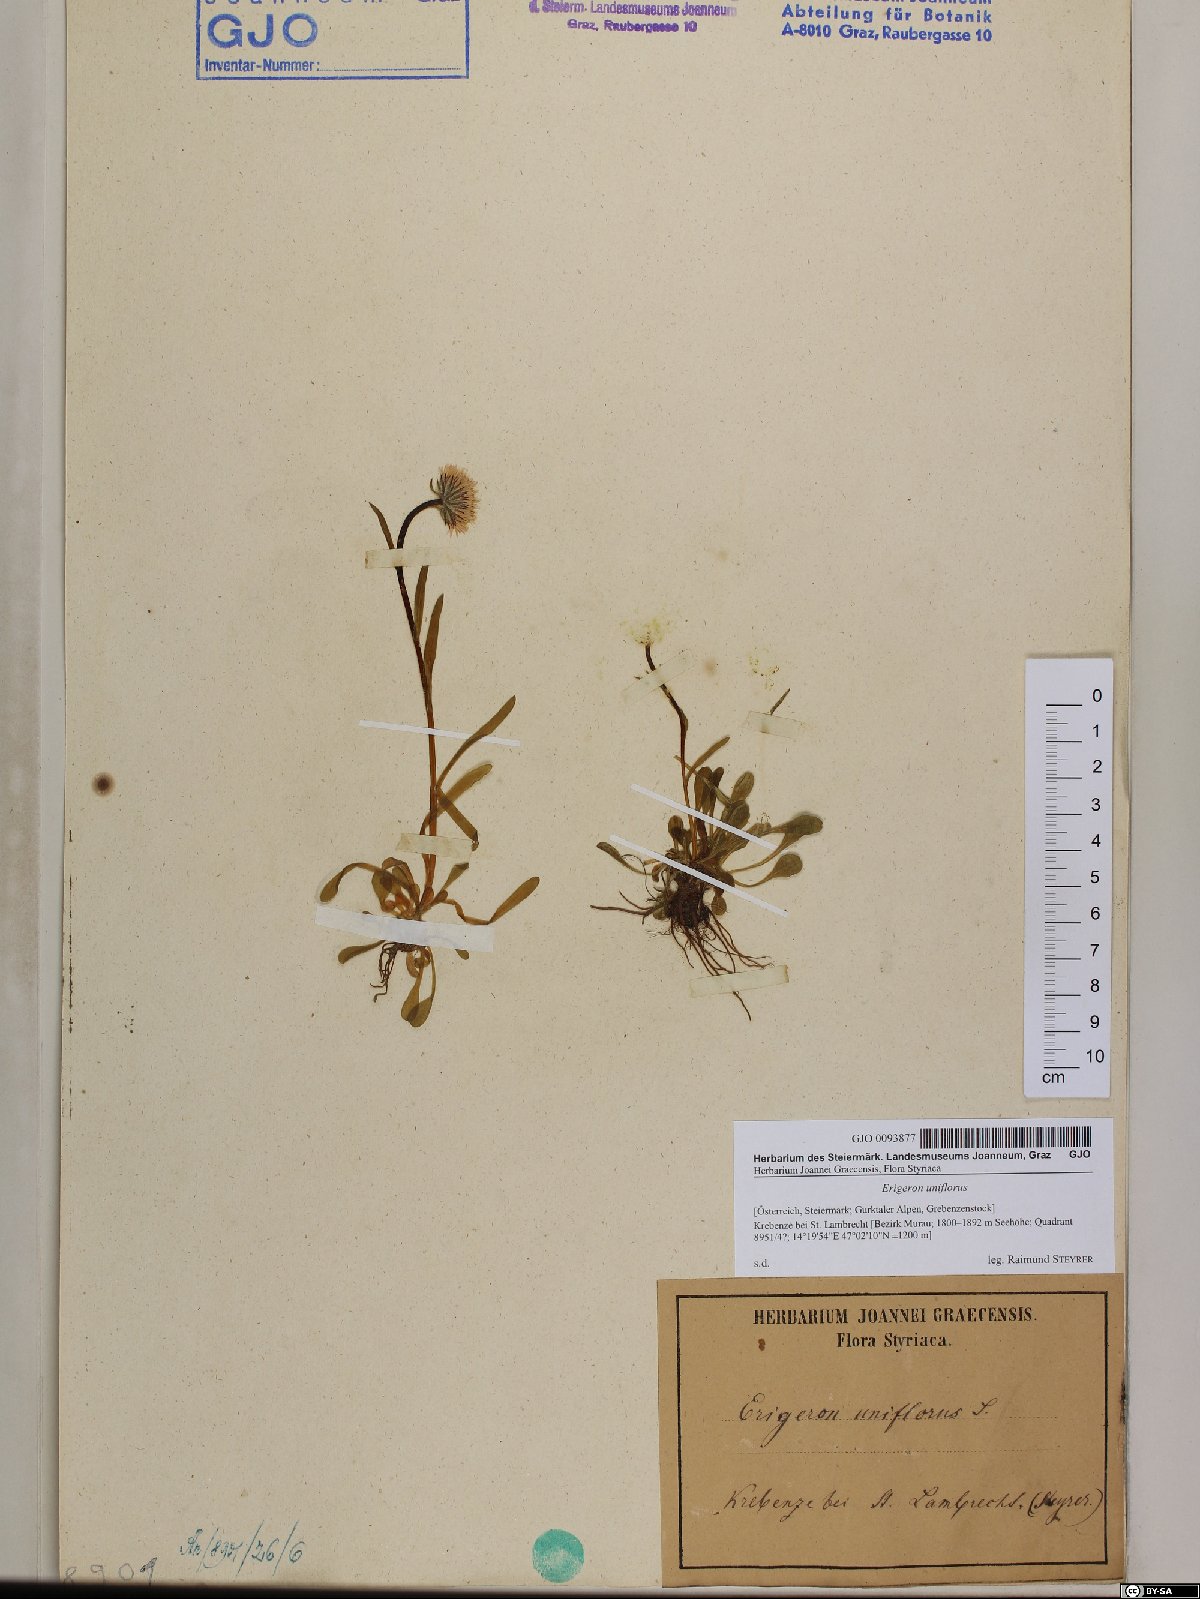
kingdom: Plantae
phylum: Tracheophyta
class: Magnoliopsida
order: Asterales
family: Asteraceae
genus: Erigeron
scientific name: Erigeron uniflorus
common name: Northern daisy
